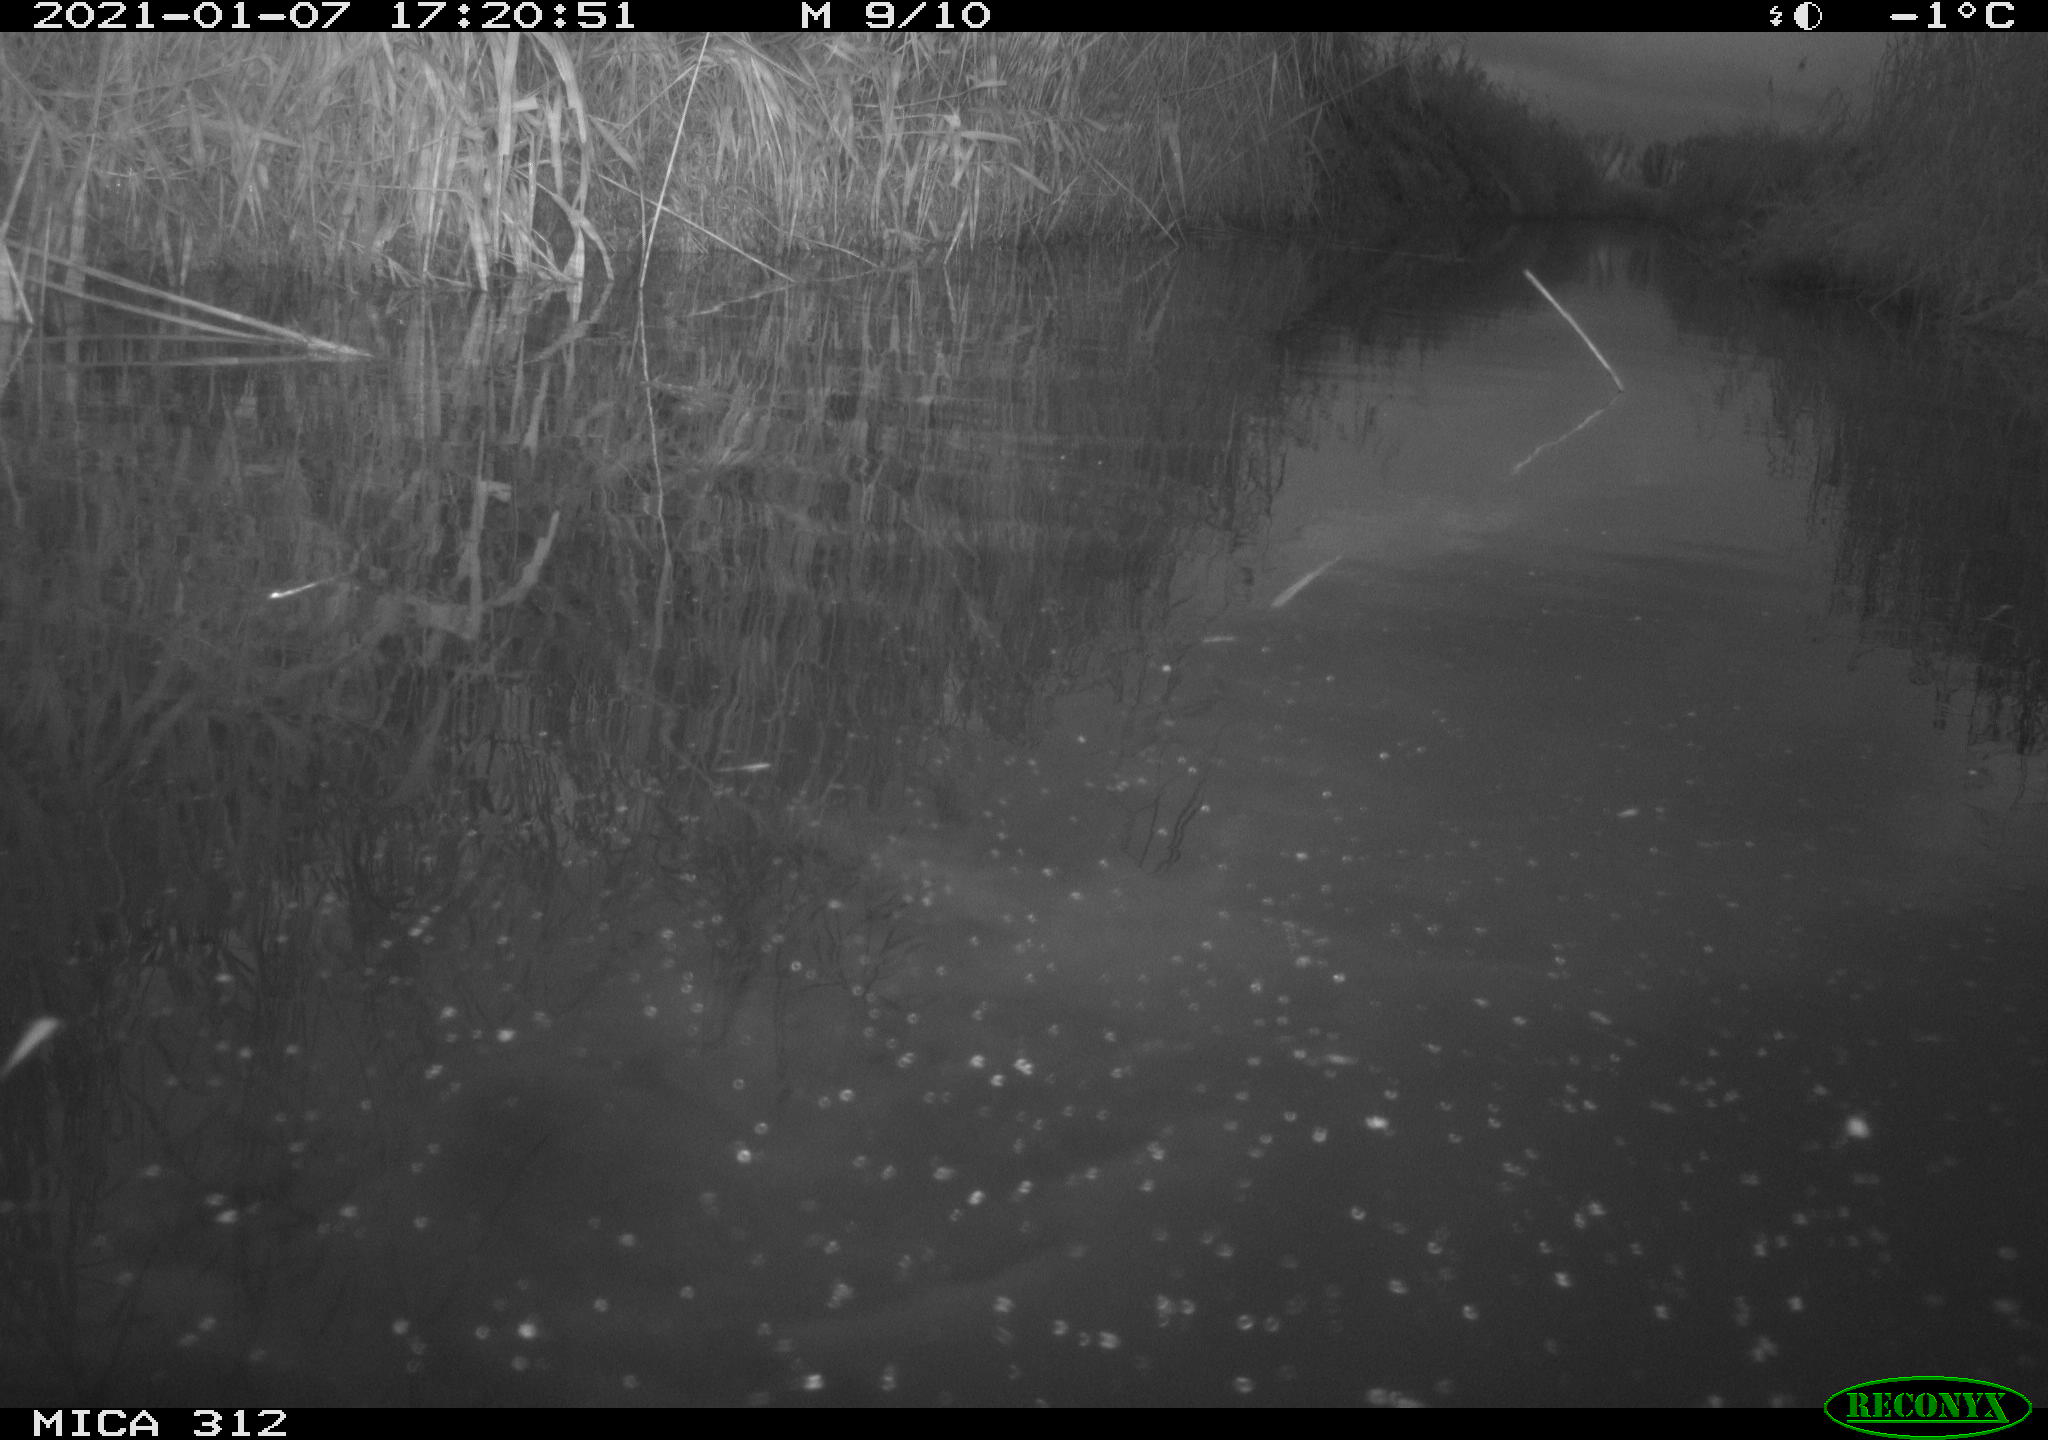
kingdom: Animalia
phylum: Chordata
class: Mammalia
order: Rodentia
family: Muridae
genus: Rattus
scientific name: Rattus norvegicus
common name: Brown rat
